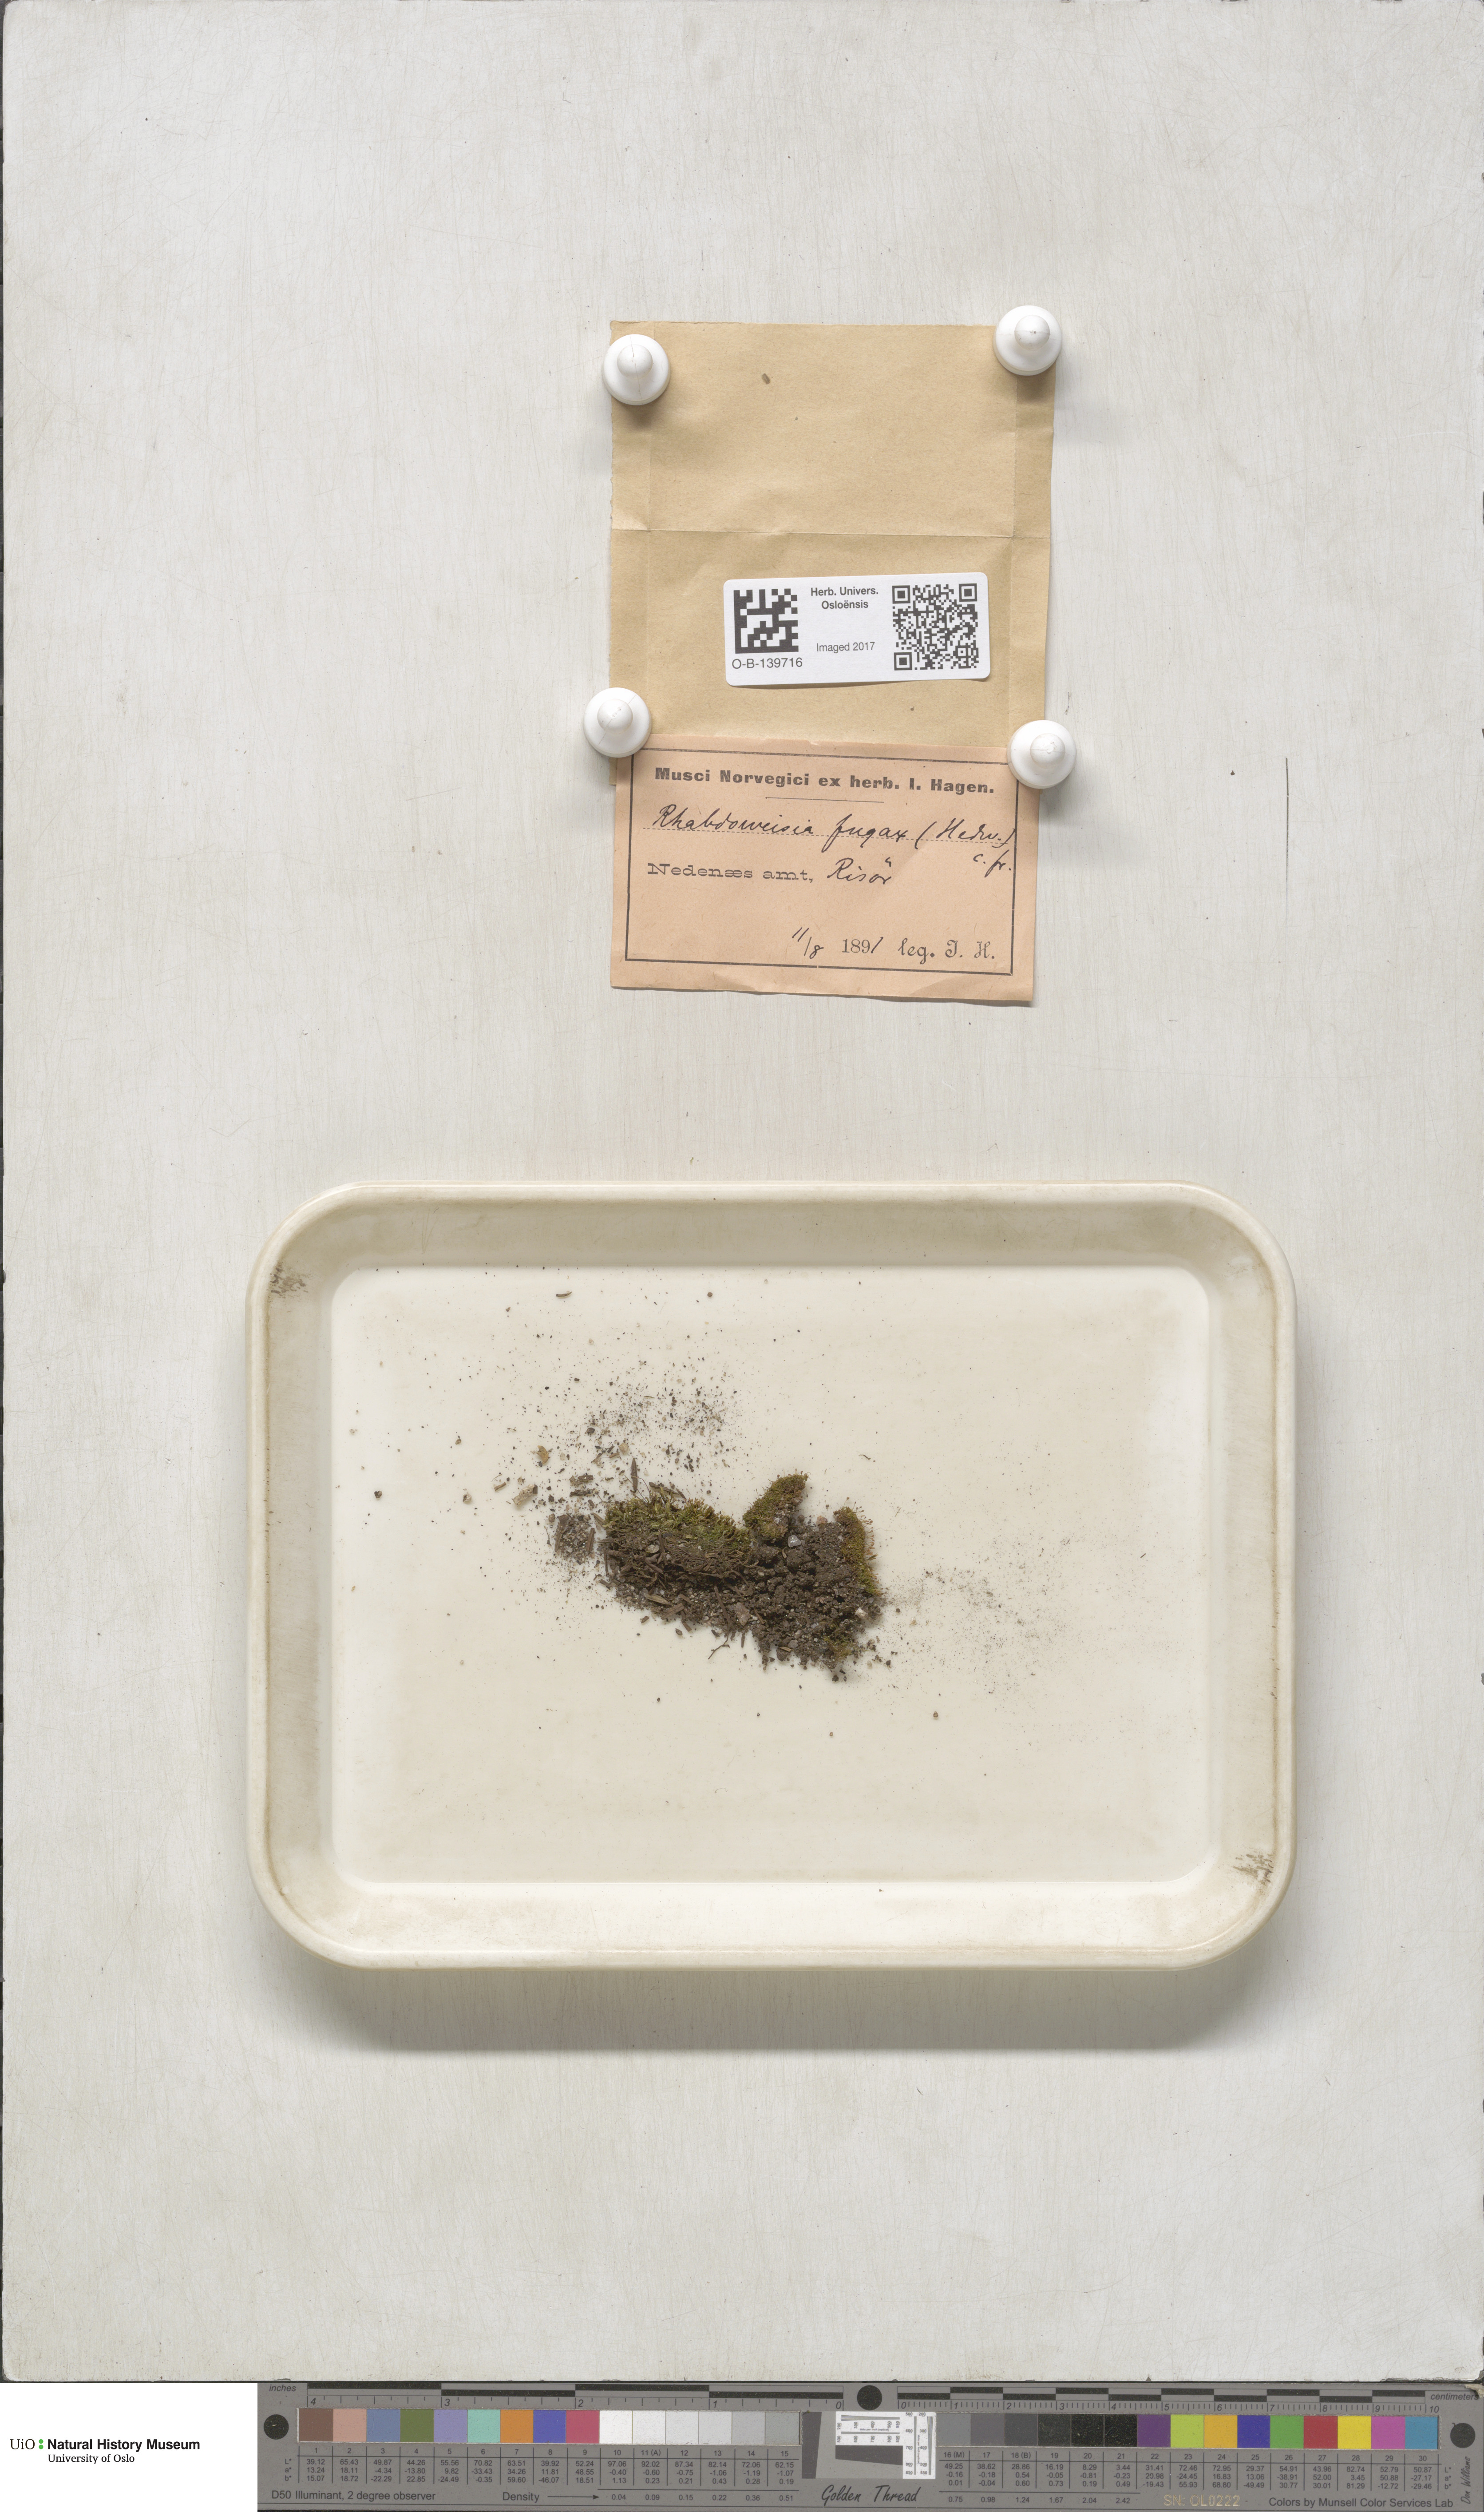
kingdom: Plantae
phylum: Bryophyta
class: Bryopsida
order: Dicranales
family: Rhabdoweisiaceae
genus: Rhabdoweisia
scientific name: Rhabdoweisia fugax
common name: Dwarf streak-moss
